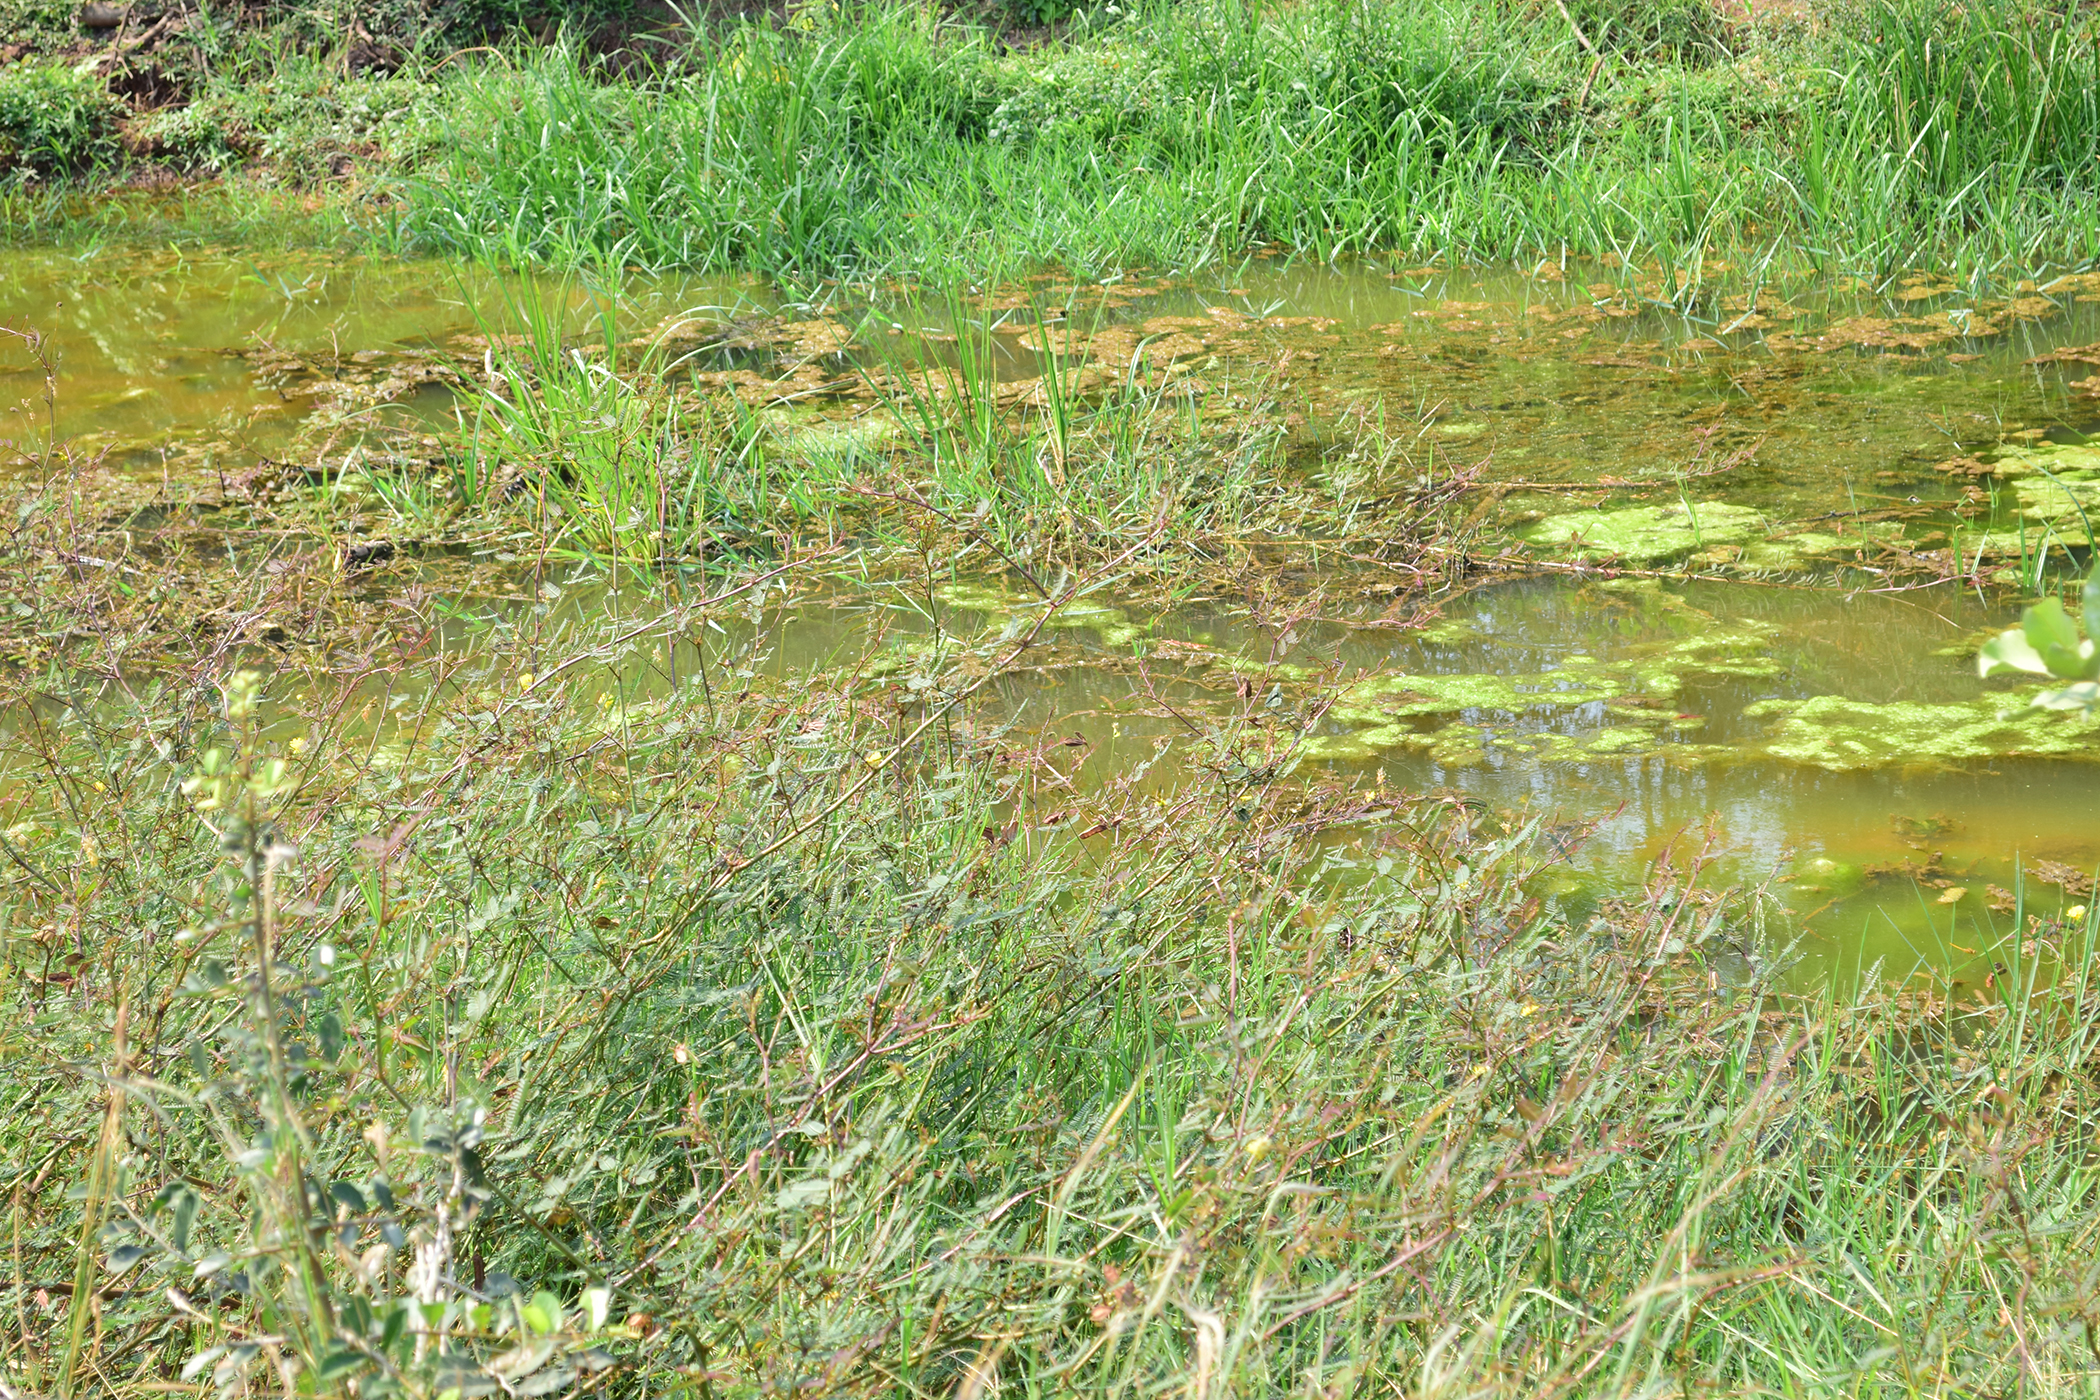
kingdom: Plantae
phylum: Tracheophyta
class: Magnoliopsida
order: Fabales
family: Fabaceae
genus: Neptunia
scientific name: Neptunia plena
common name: Dead and awake
